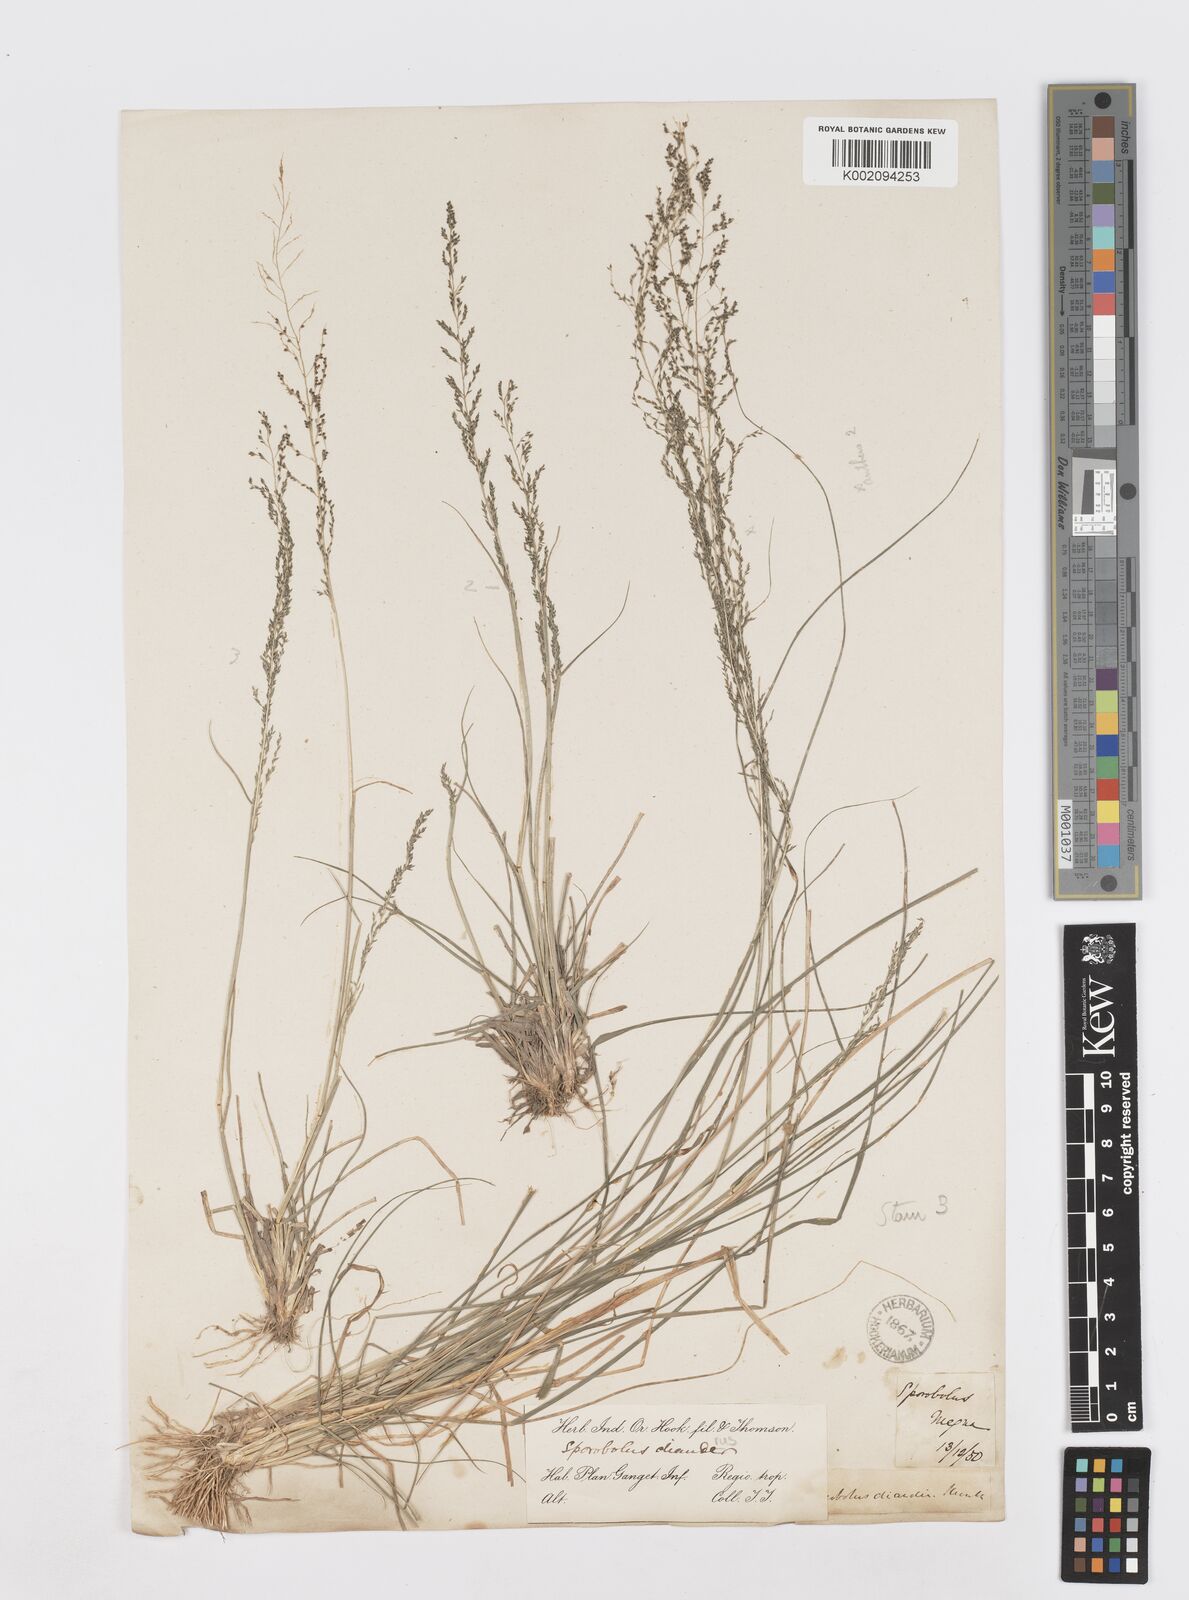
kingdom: Plantae
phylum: Tracheophyta
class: Liliopsida
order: Poales
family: Poaceae
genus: Sporobolus
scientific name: Sporobolus diandrus
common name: Tussock dropseed
